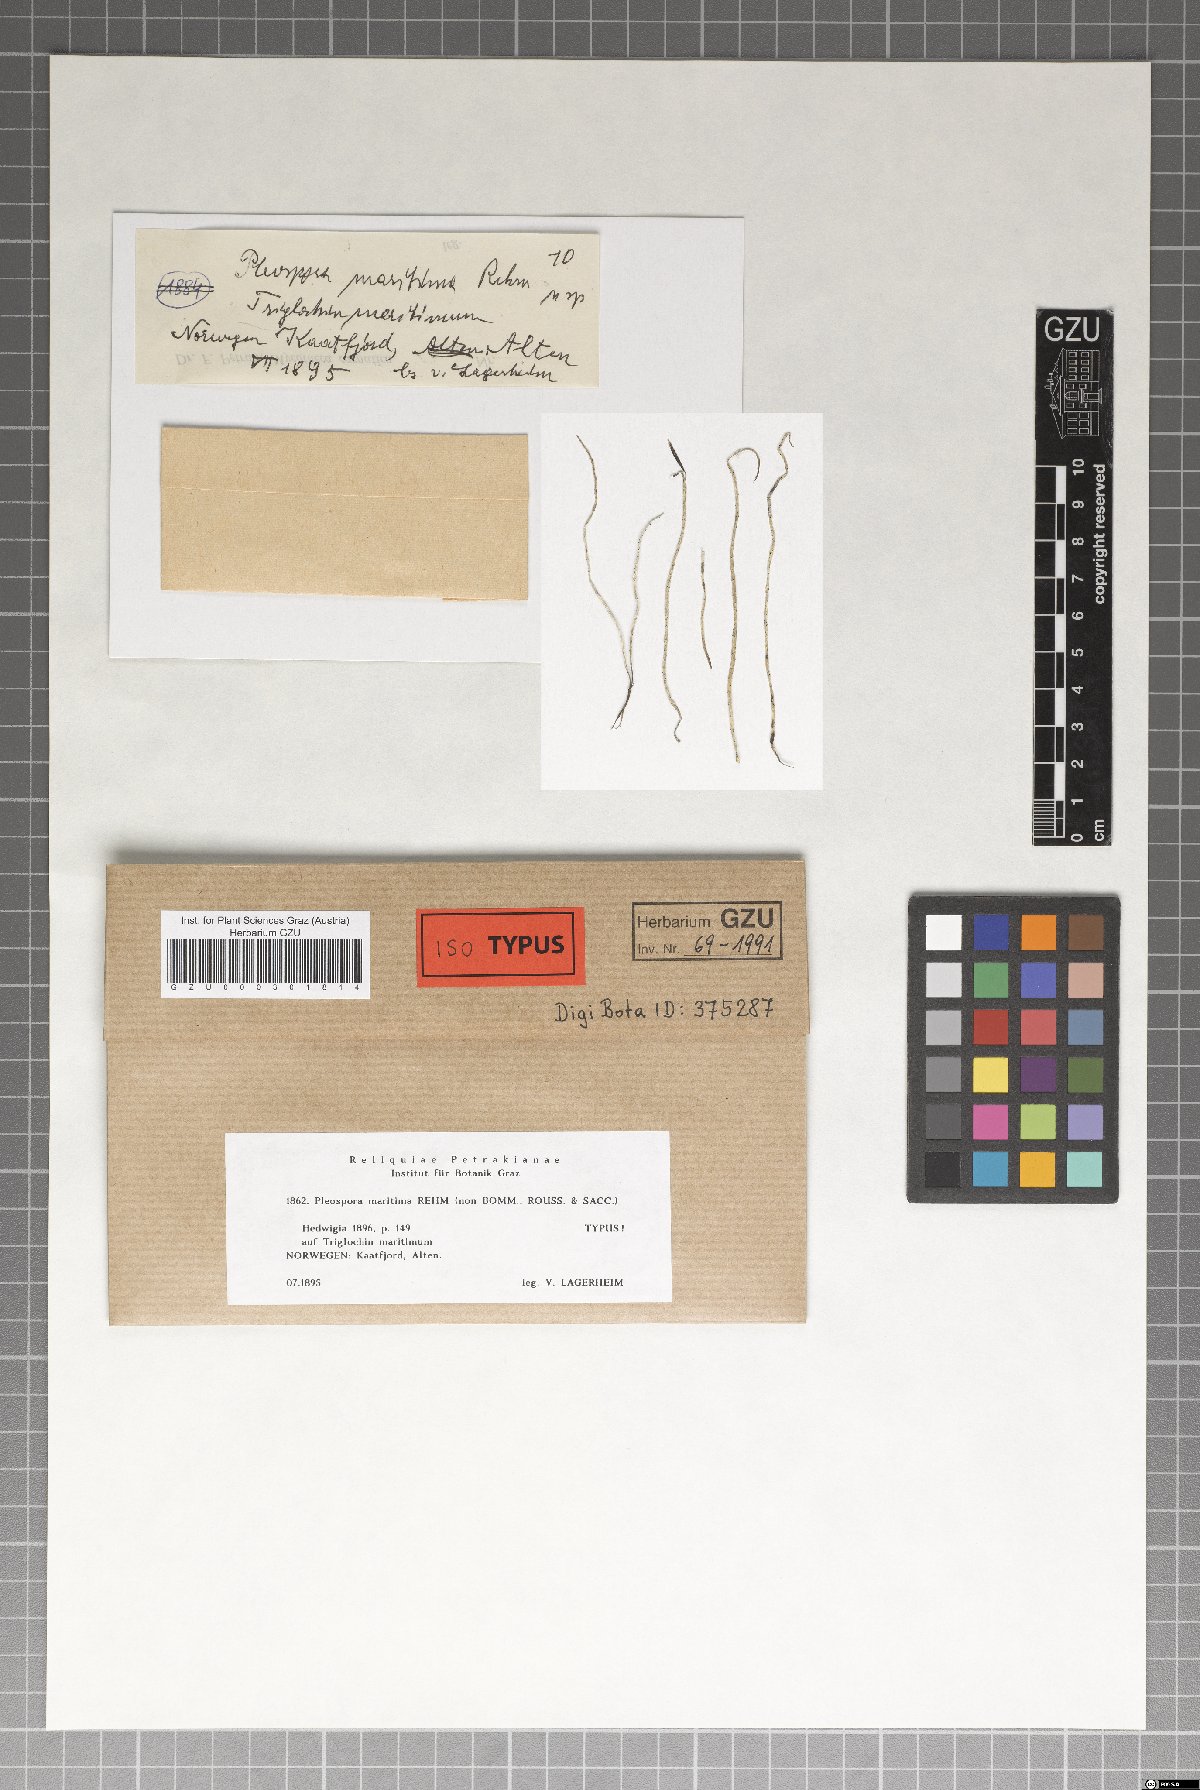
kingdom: Fungi
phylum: Ascomycota
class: Dothideomycetes
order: Pleosporales
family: Pleosporaceae
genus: Stemphylium
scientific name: Stemphylium triglochinicola
